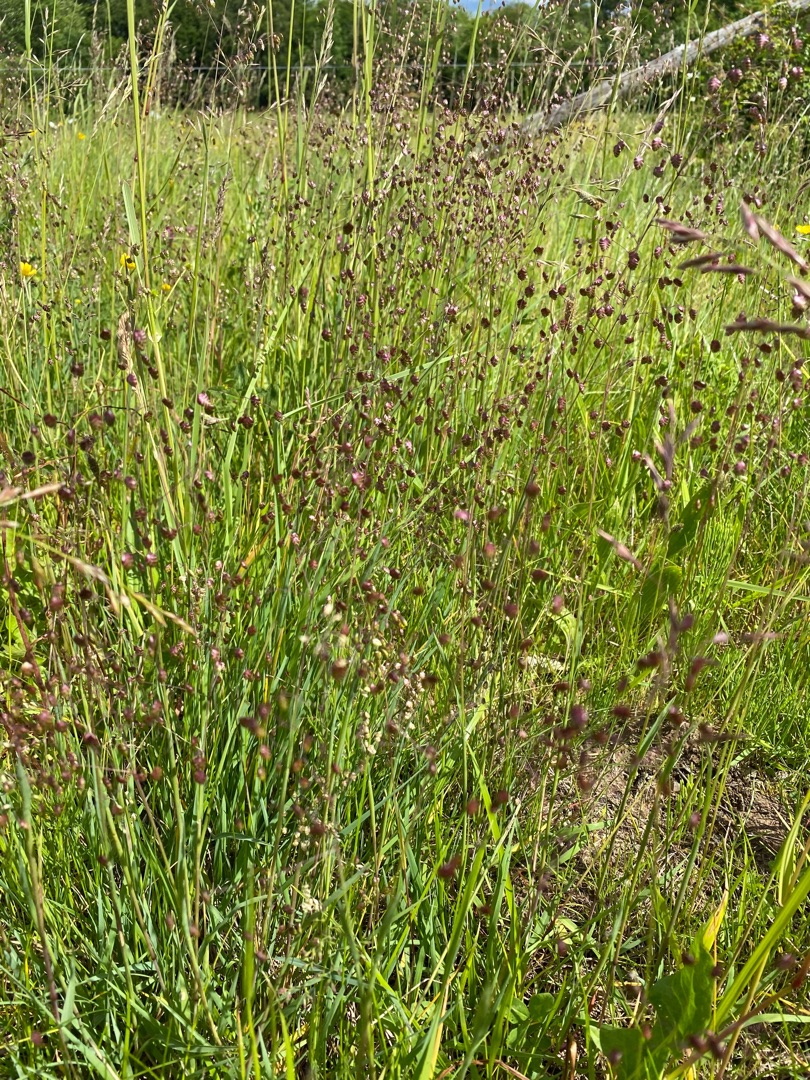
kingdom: Plantae
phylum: Tracheophyta
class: Liliopsida
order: Poales
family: Poaceae
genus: Briza
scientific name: Briza media
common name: Hjertegræs
